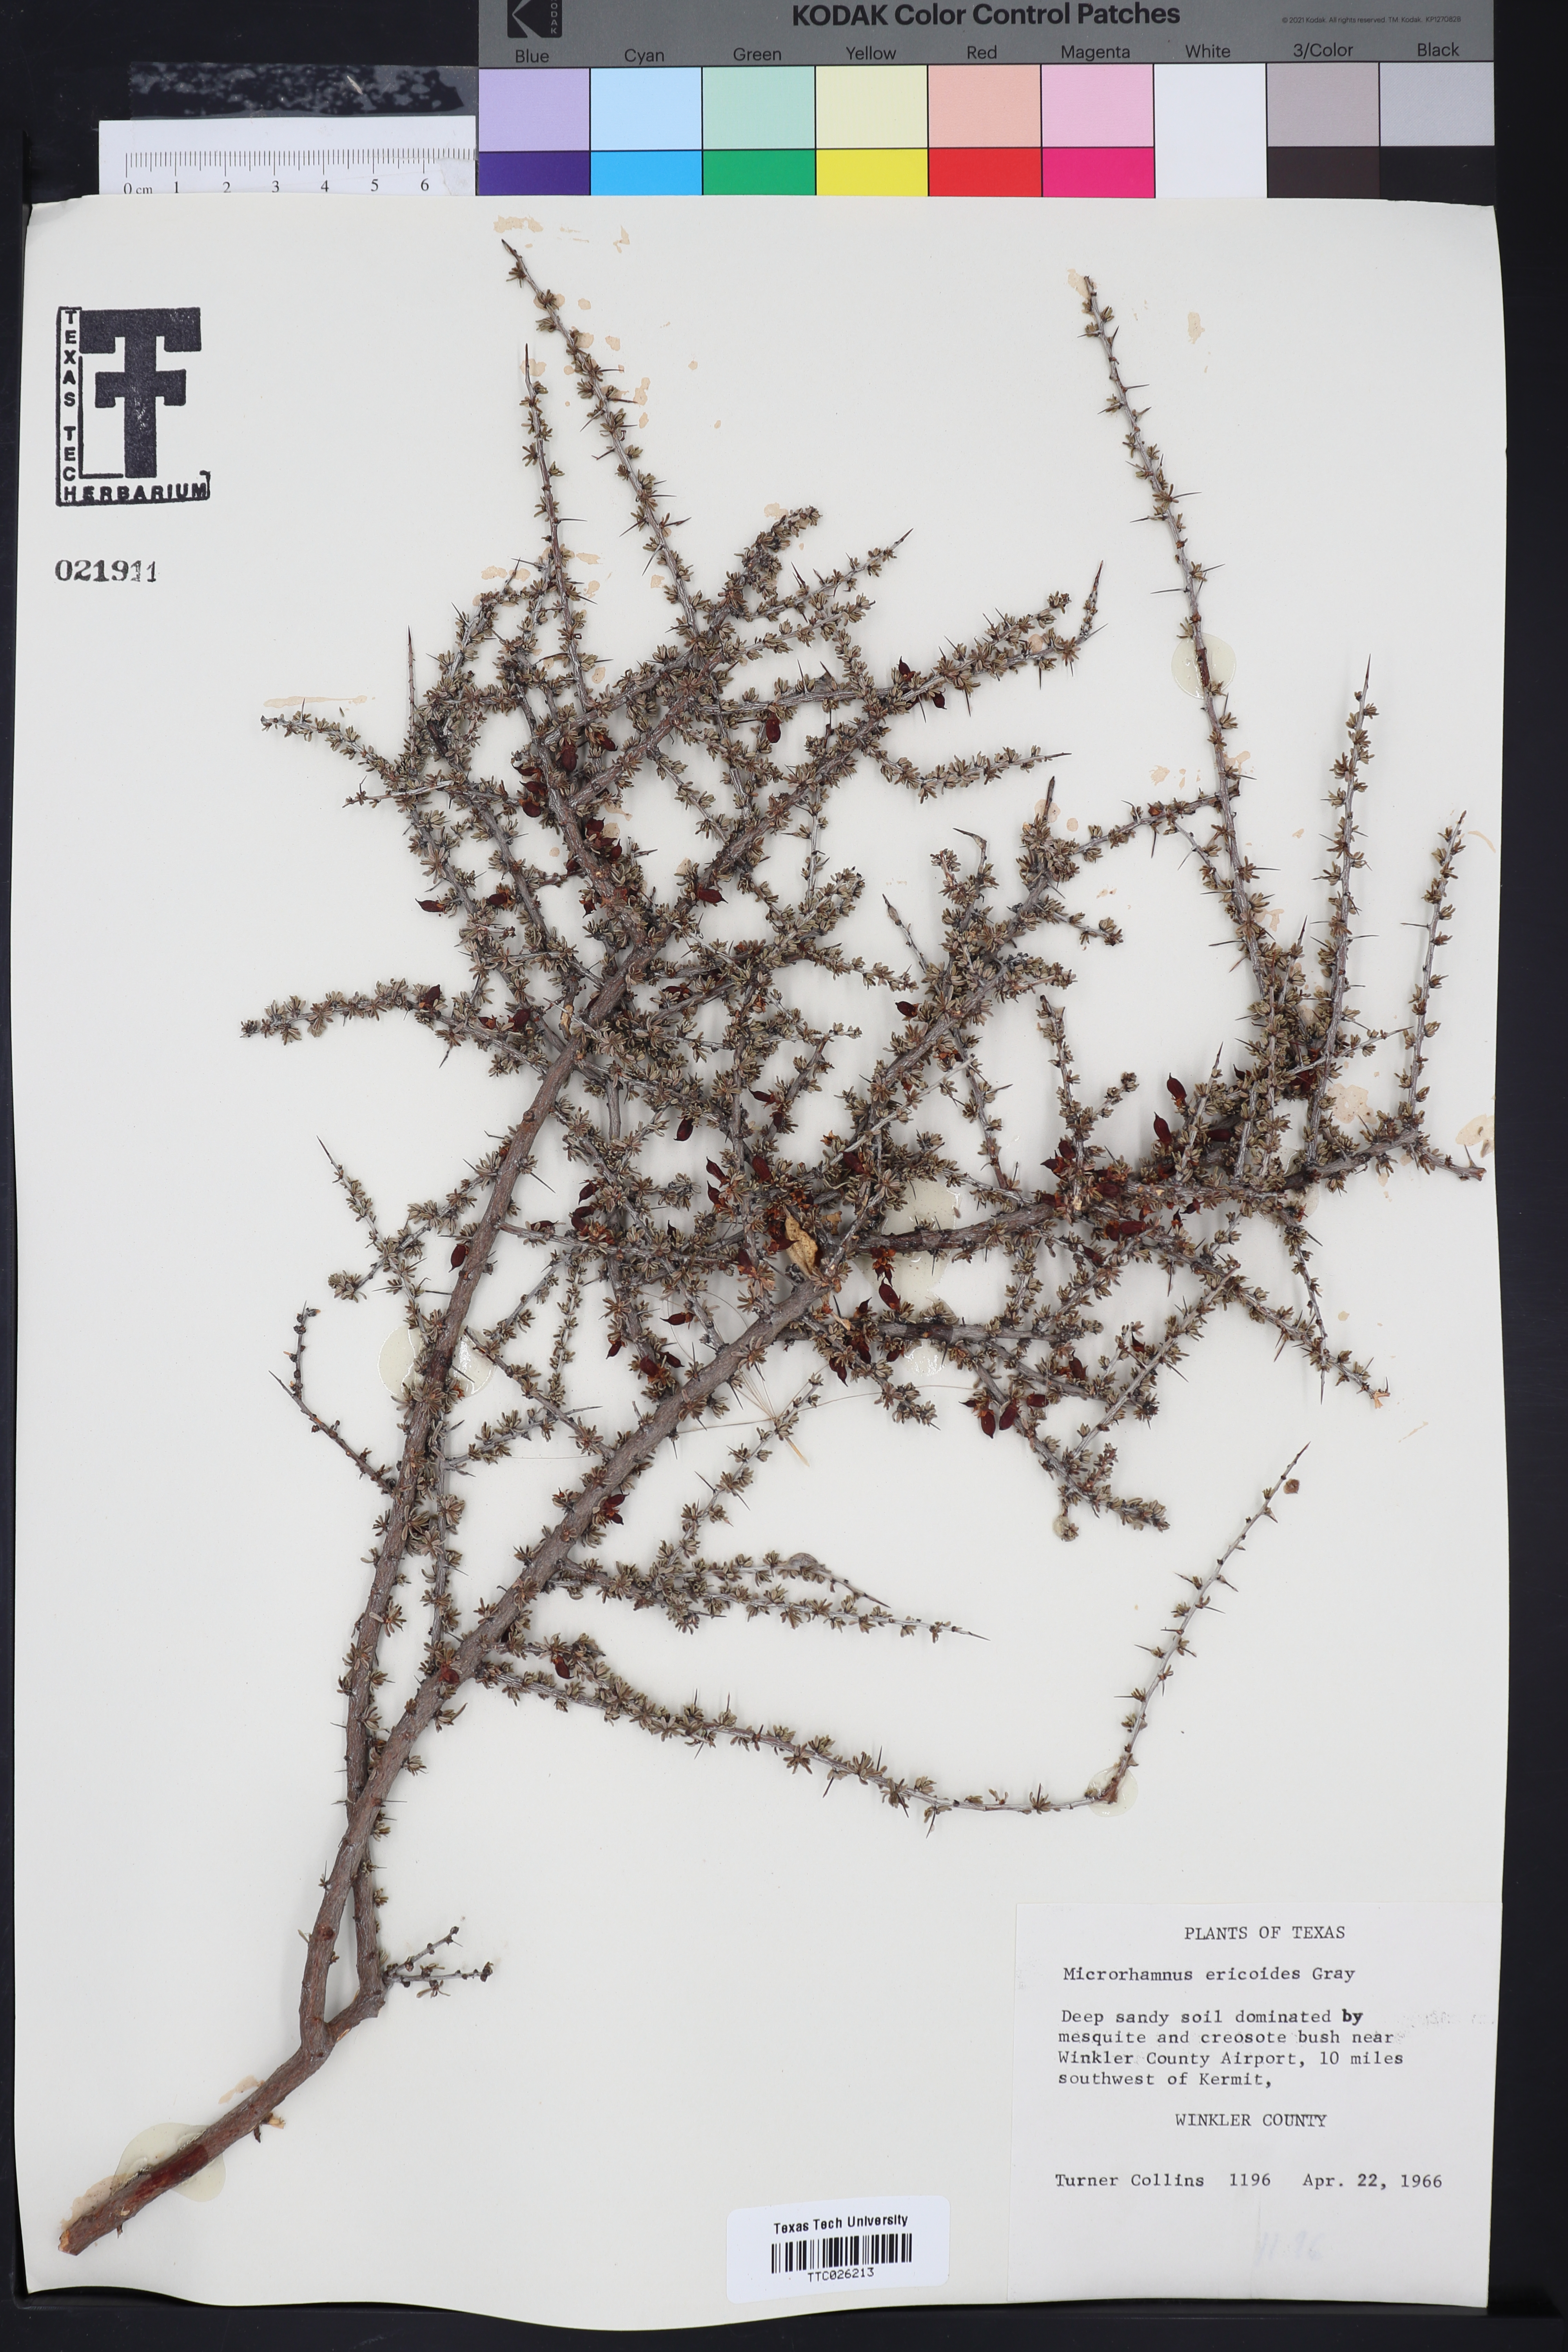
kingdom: Plantae
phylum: Tracheophyta
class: Magnoliopsida
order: Rosales
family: Rhamnaceae
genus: Condalia
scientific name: Condalia ericoides
